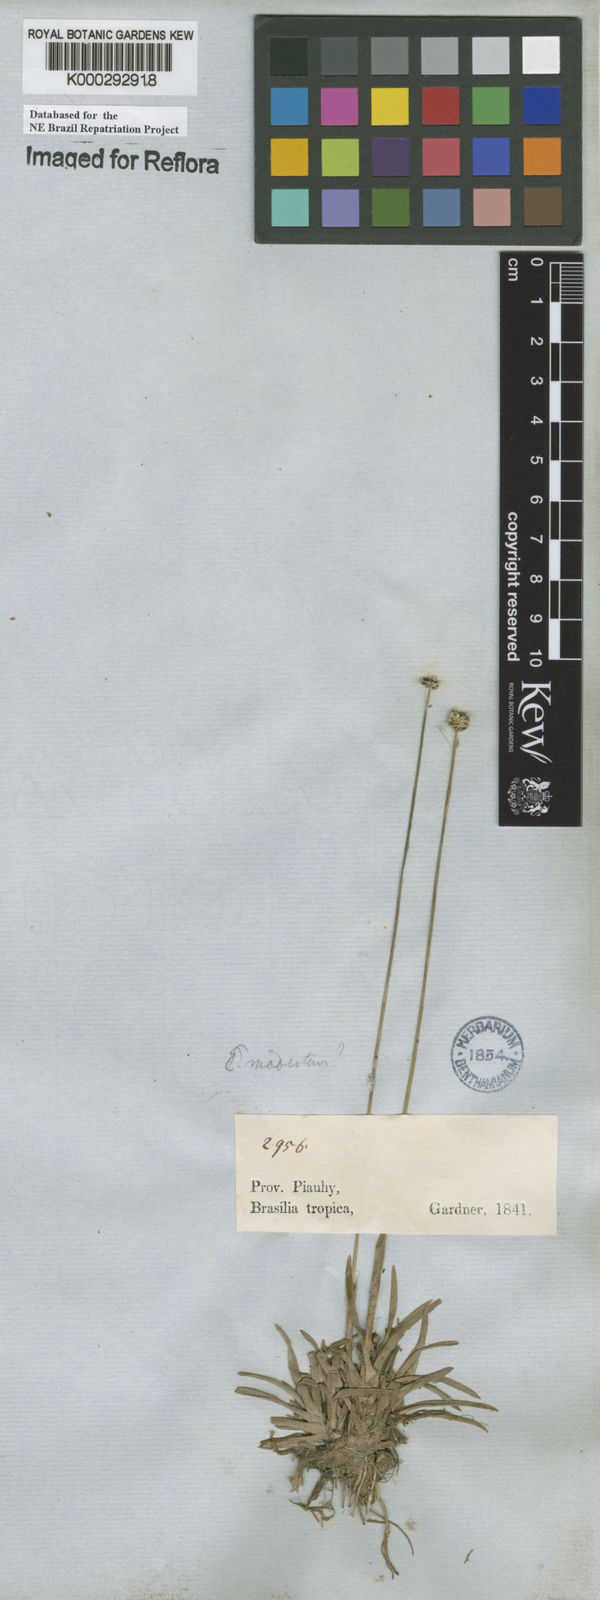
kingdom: Plantae
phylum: Tracheophyta
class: Liliopsida
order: Poales
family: Eriocaulaceae
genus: Eriocaulon
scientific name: Eriocaulon modestum
